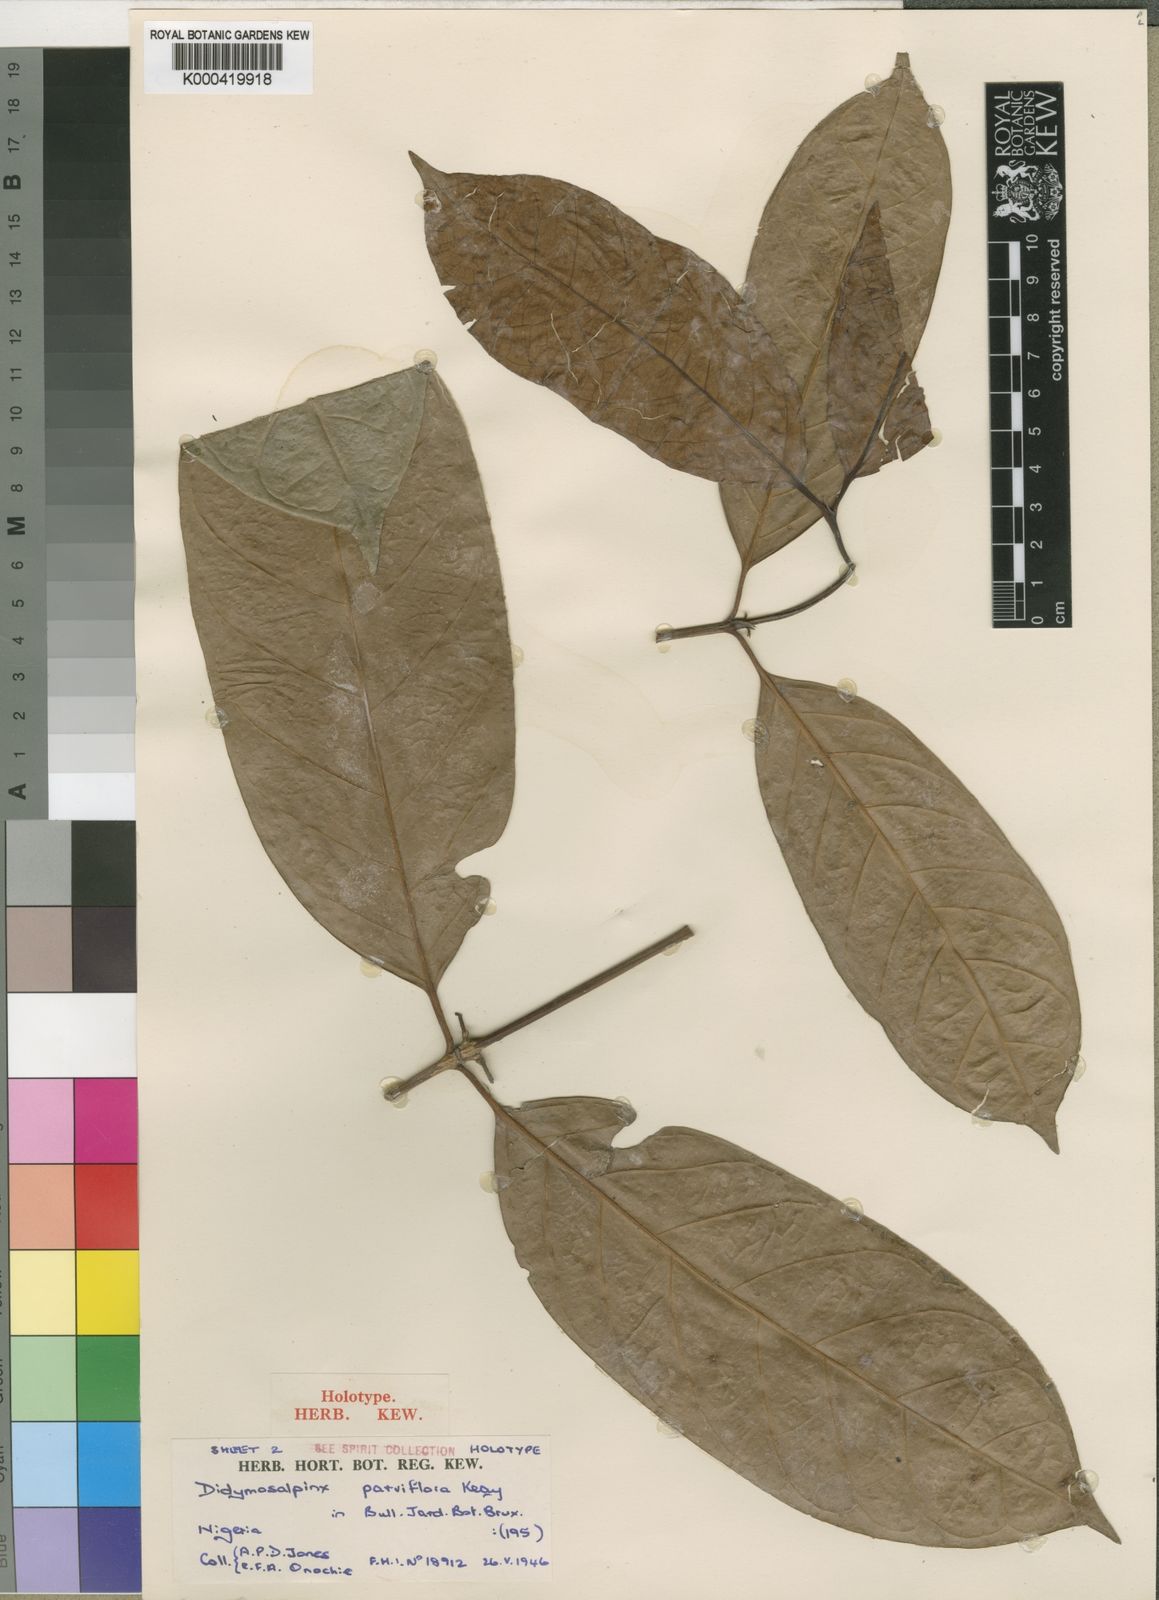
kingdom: Plantae
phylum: Tracheophyta
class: Magnoliopsida
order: Gentianales
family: Rubiaceae
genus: Petitiocodon
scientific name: Petitiocodon parviflorum
